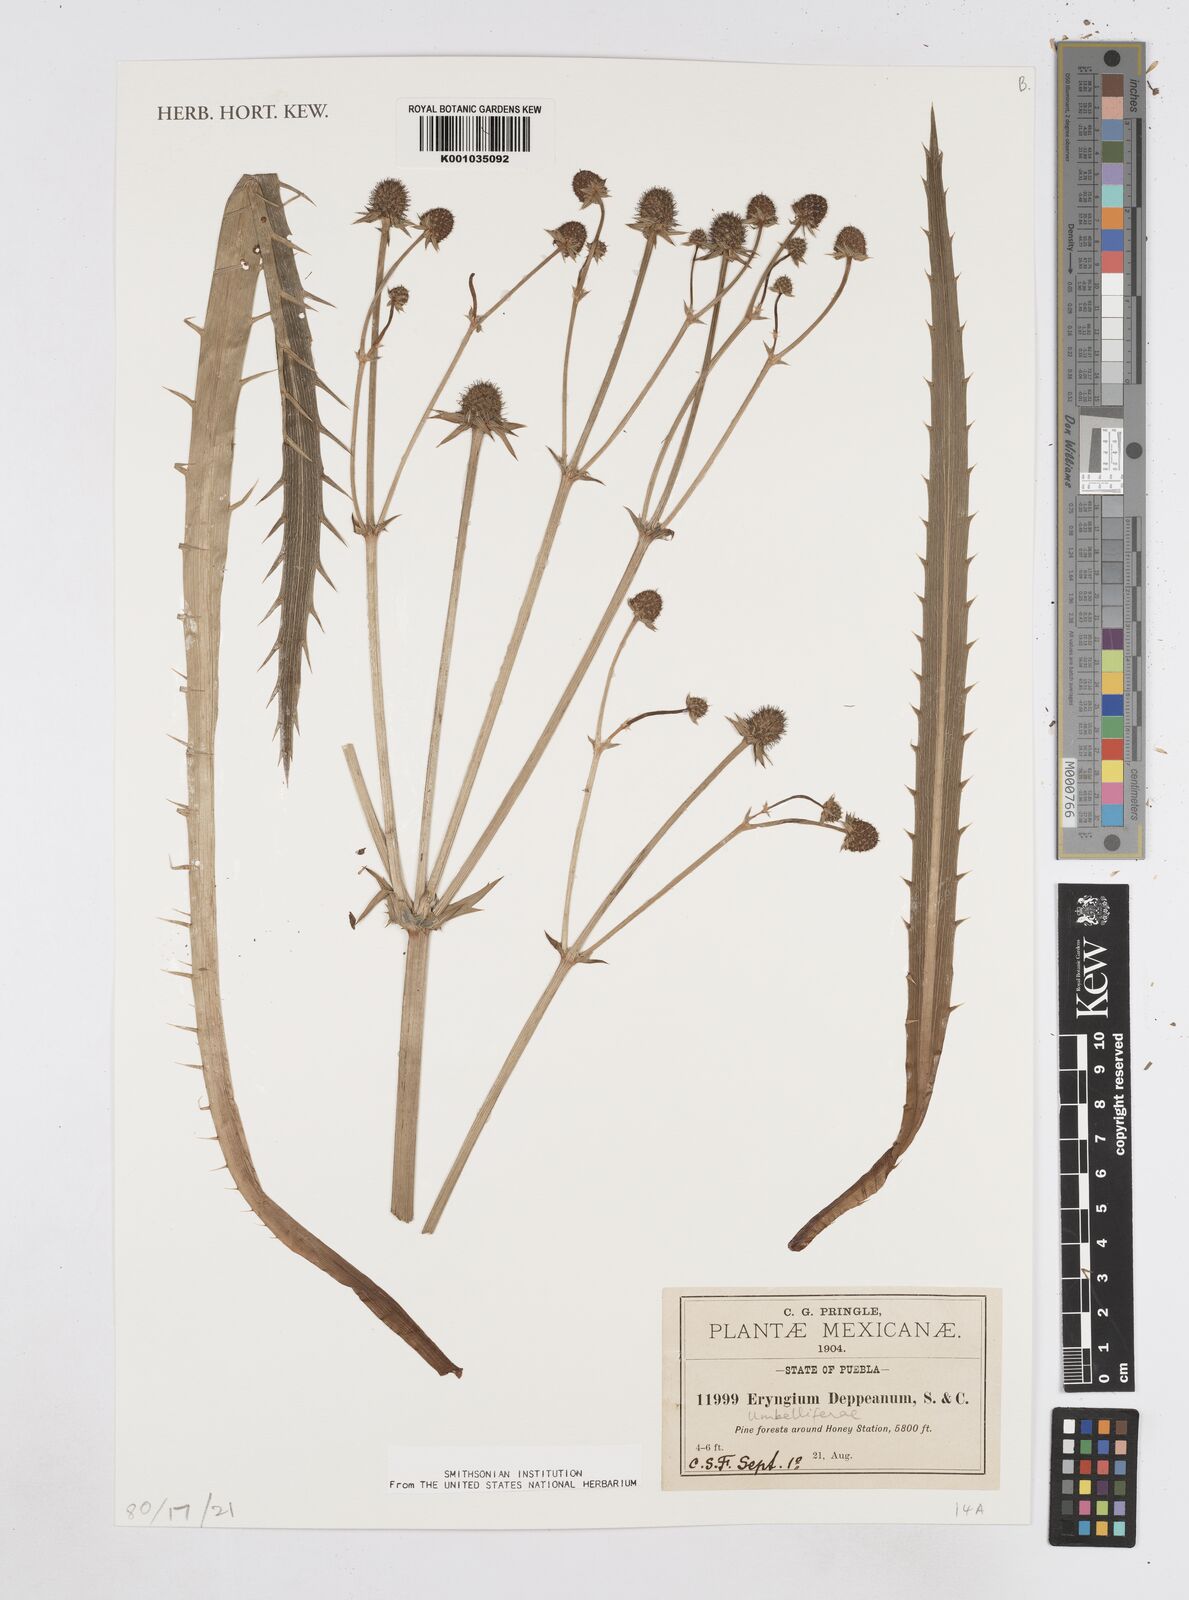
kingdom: Plantae
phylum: Tracheophyta
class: Magnoliopsida
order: Apiales
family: Apiaceae
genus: Eryngium
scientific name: Eryngium deppeanum
